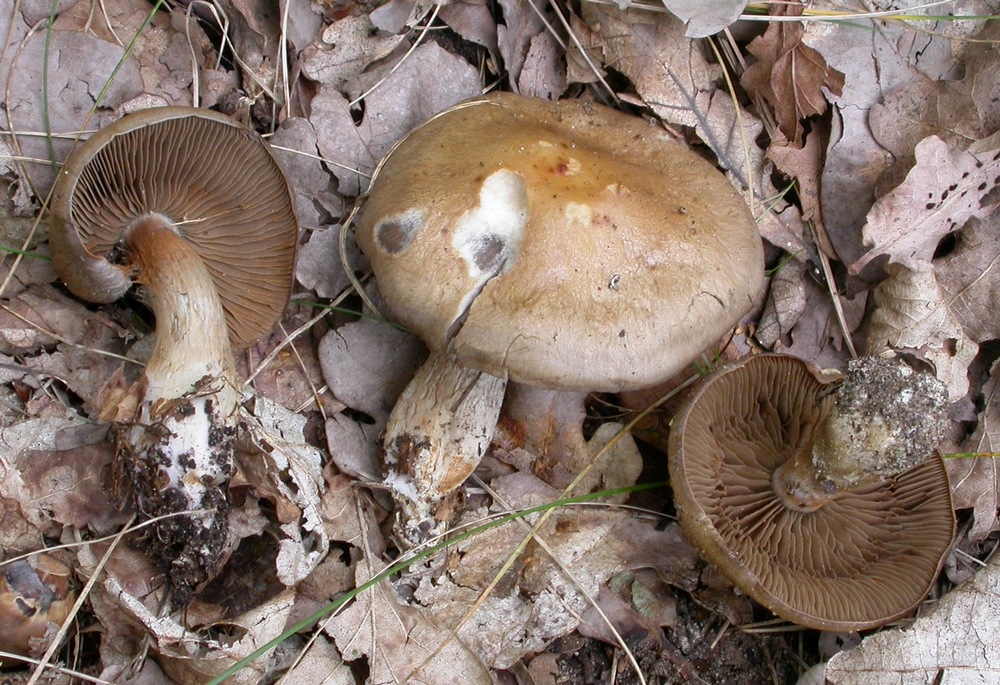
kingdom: Fungi
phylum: Basidiomycota
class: Agaricomycetes
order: Agaricales
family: Cortinariaceae
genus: Cortinarius
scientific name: Cortinarius
